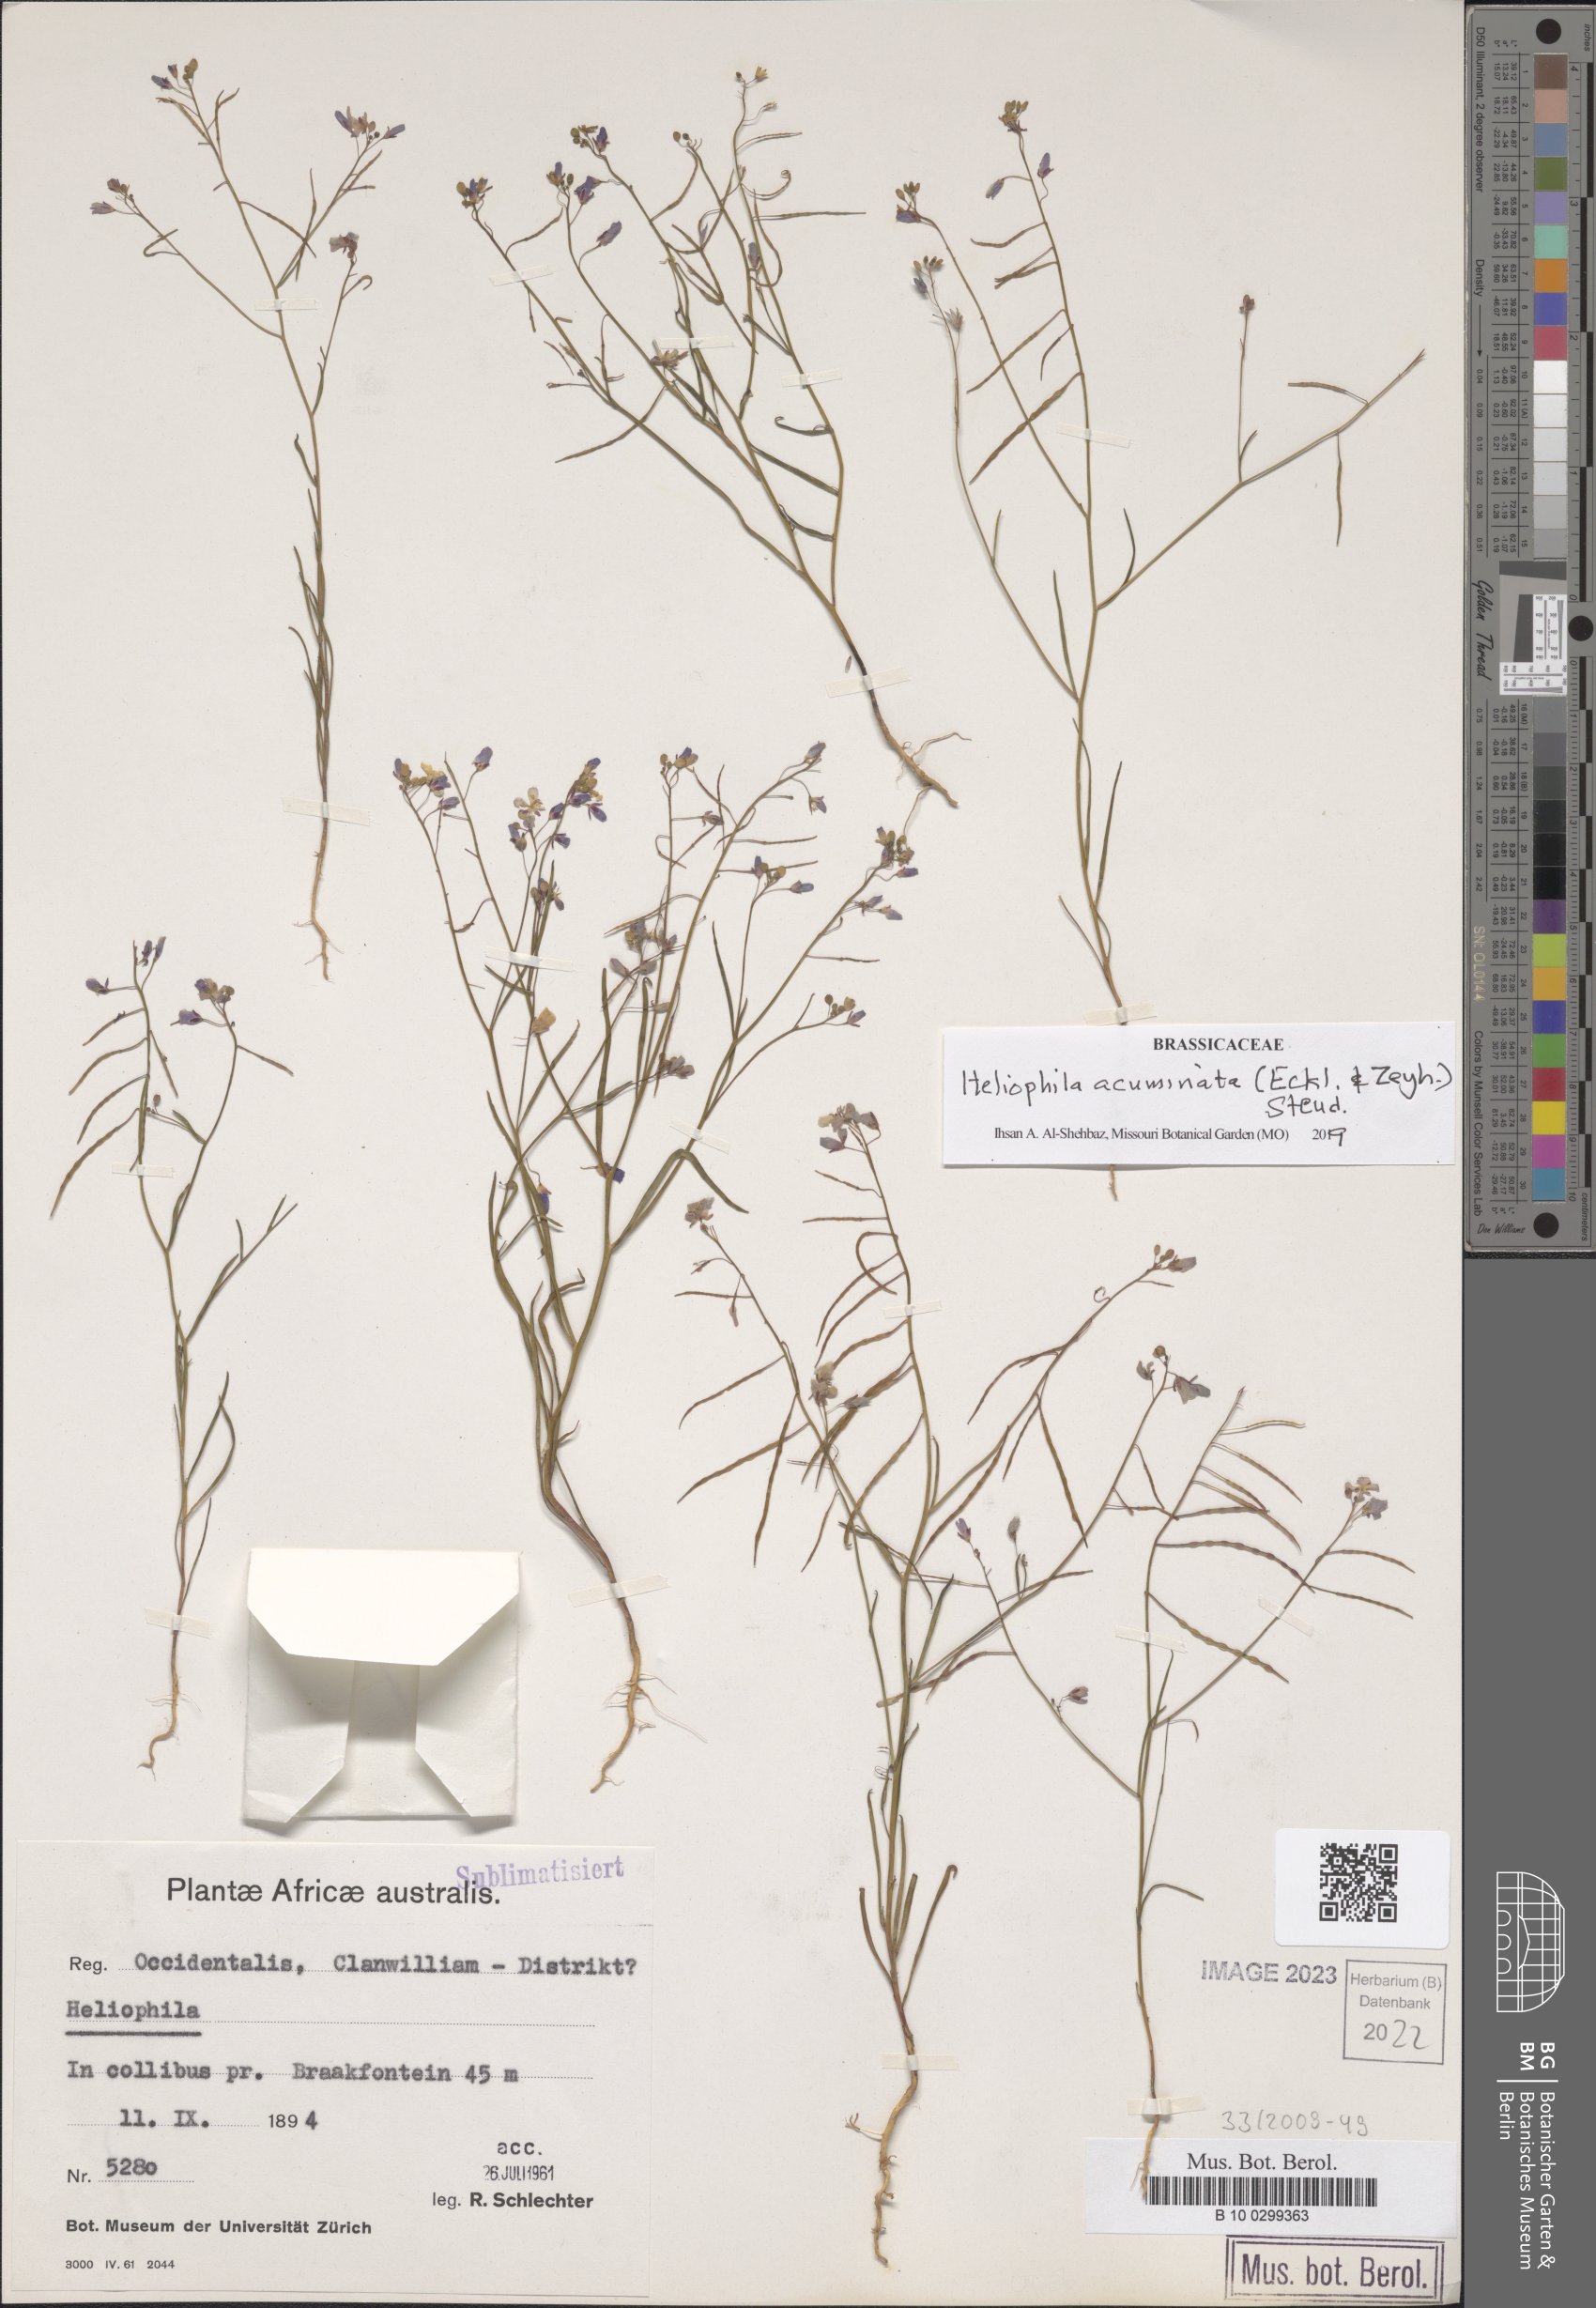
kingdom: Plantae
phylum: Tracheophyta
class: Magnoliopsida
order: Brassicales
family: Brassicaceae
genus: Heliophila
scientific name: Heliophila acuminata
